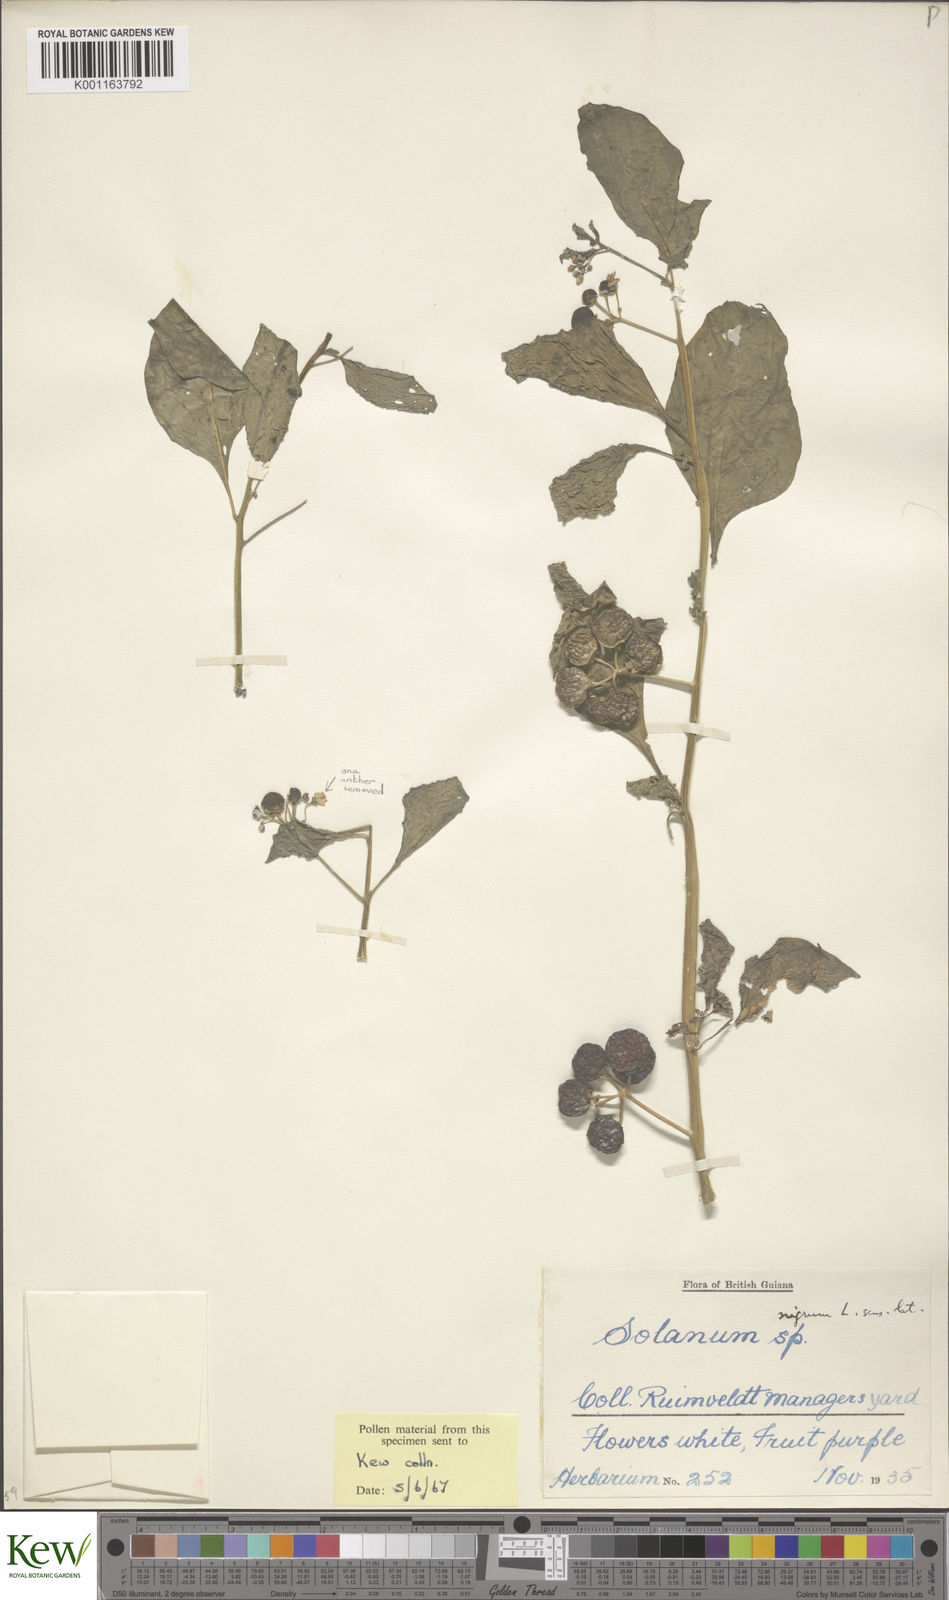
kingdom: Plantae
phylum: Tracheophyta
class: Magnoliopsida
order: Solanales
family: Solanaceae
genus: Solanum
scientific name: Solanum americanum
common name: American black nightshade
